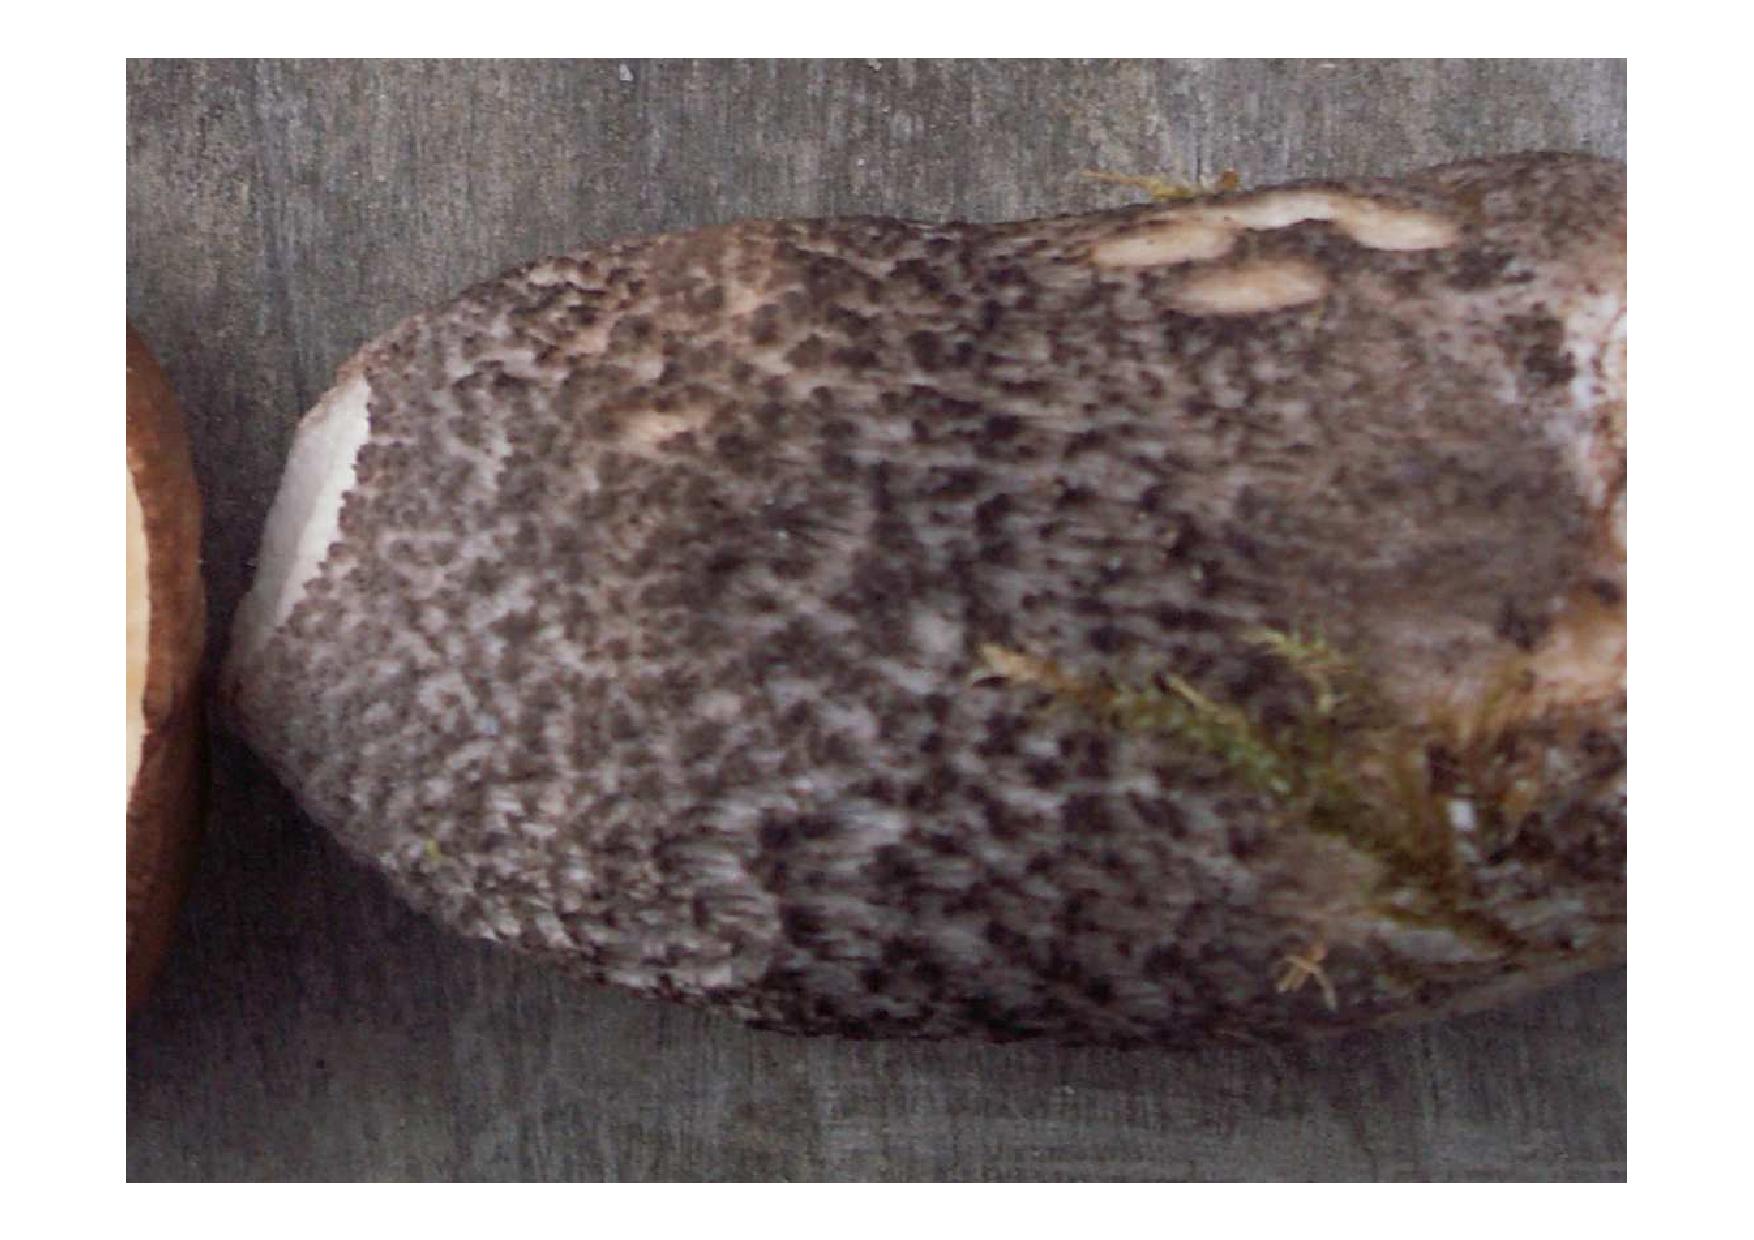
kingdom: Fungi
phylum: Basidiomycota
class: Agaricomycetes
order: Boletales
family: Boletaceae
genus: Leccinum
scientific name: Leccinum melaneum
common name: mørk skælrørhat
